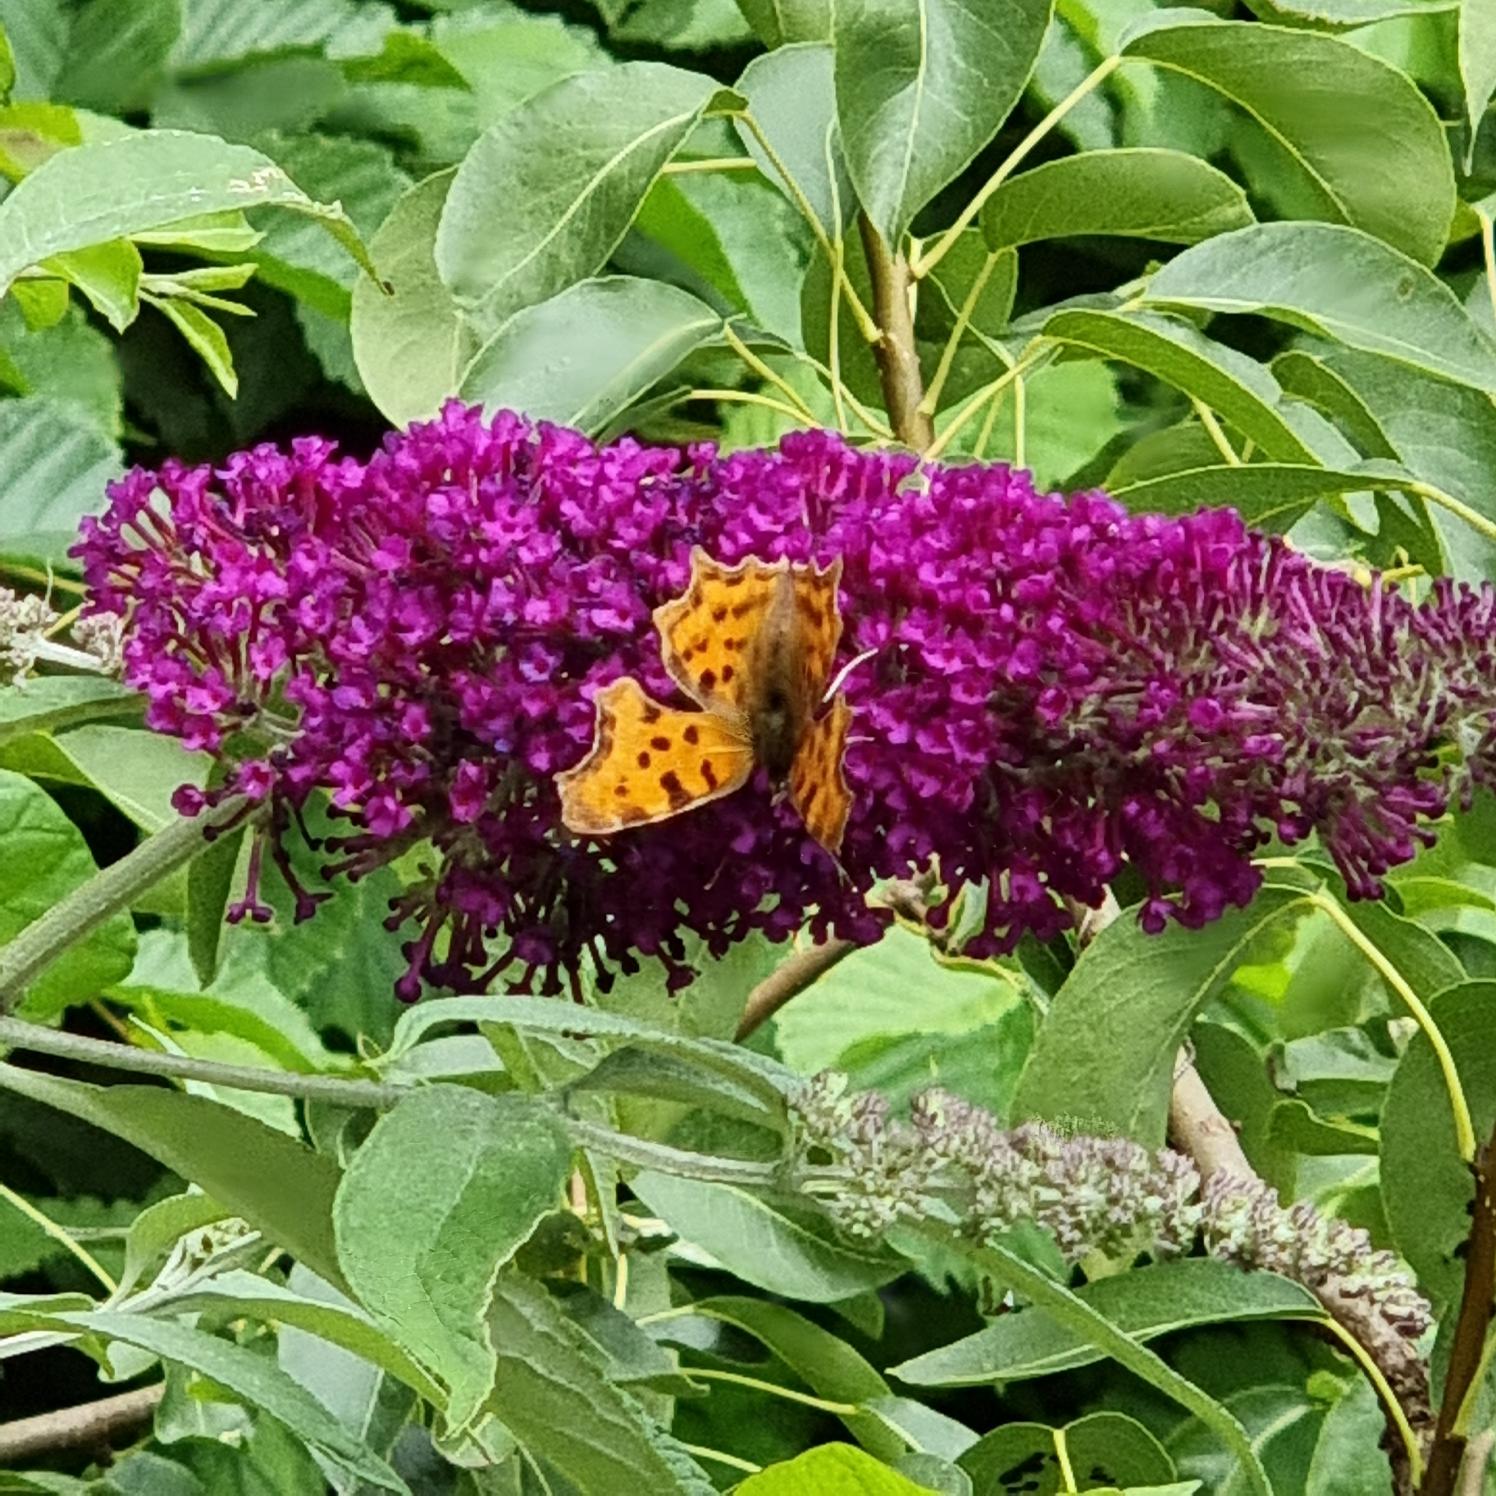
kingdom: Animalia
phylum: Arthropoda
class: Insecta
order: Lepidoptera
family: Nymphalidae
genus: Polygonia
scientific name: Polygonia c-album
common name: Det hvide C
